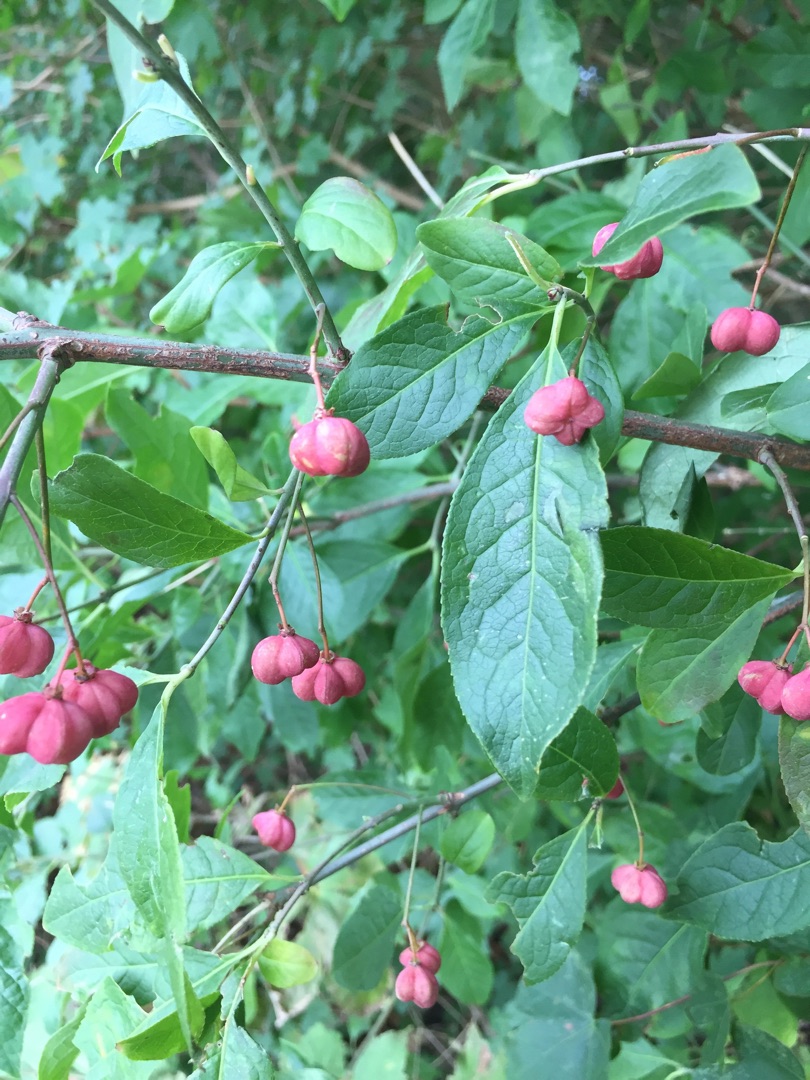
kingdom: Plantae
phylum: Tracheophyta
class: Magnoliopsida
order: Celastrales
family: Celastraceae
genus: Euonymus
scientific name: Euonymus europaeus
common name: Benved
